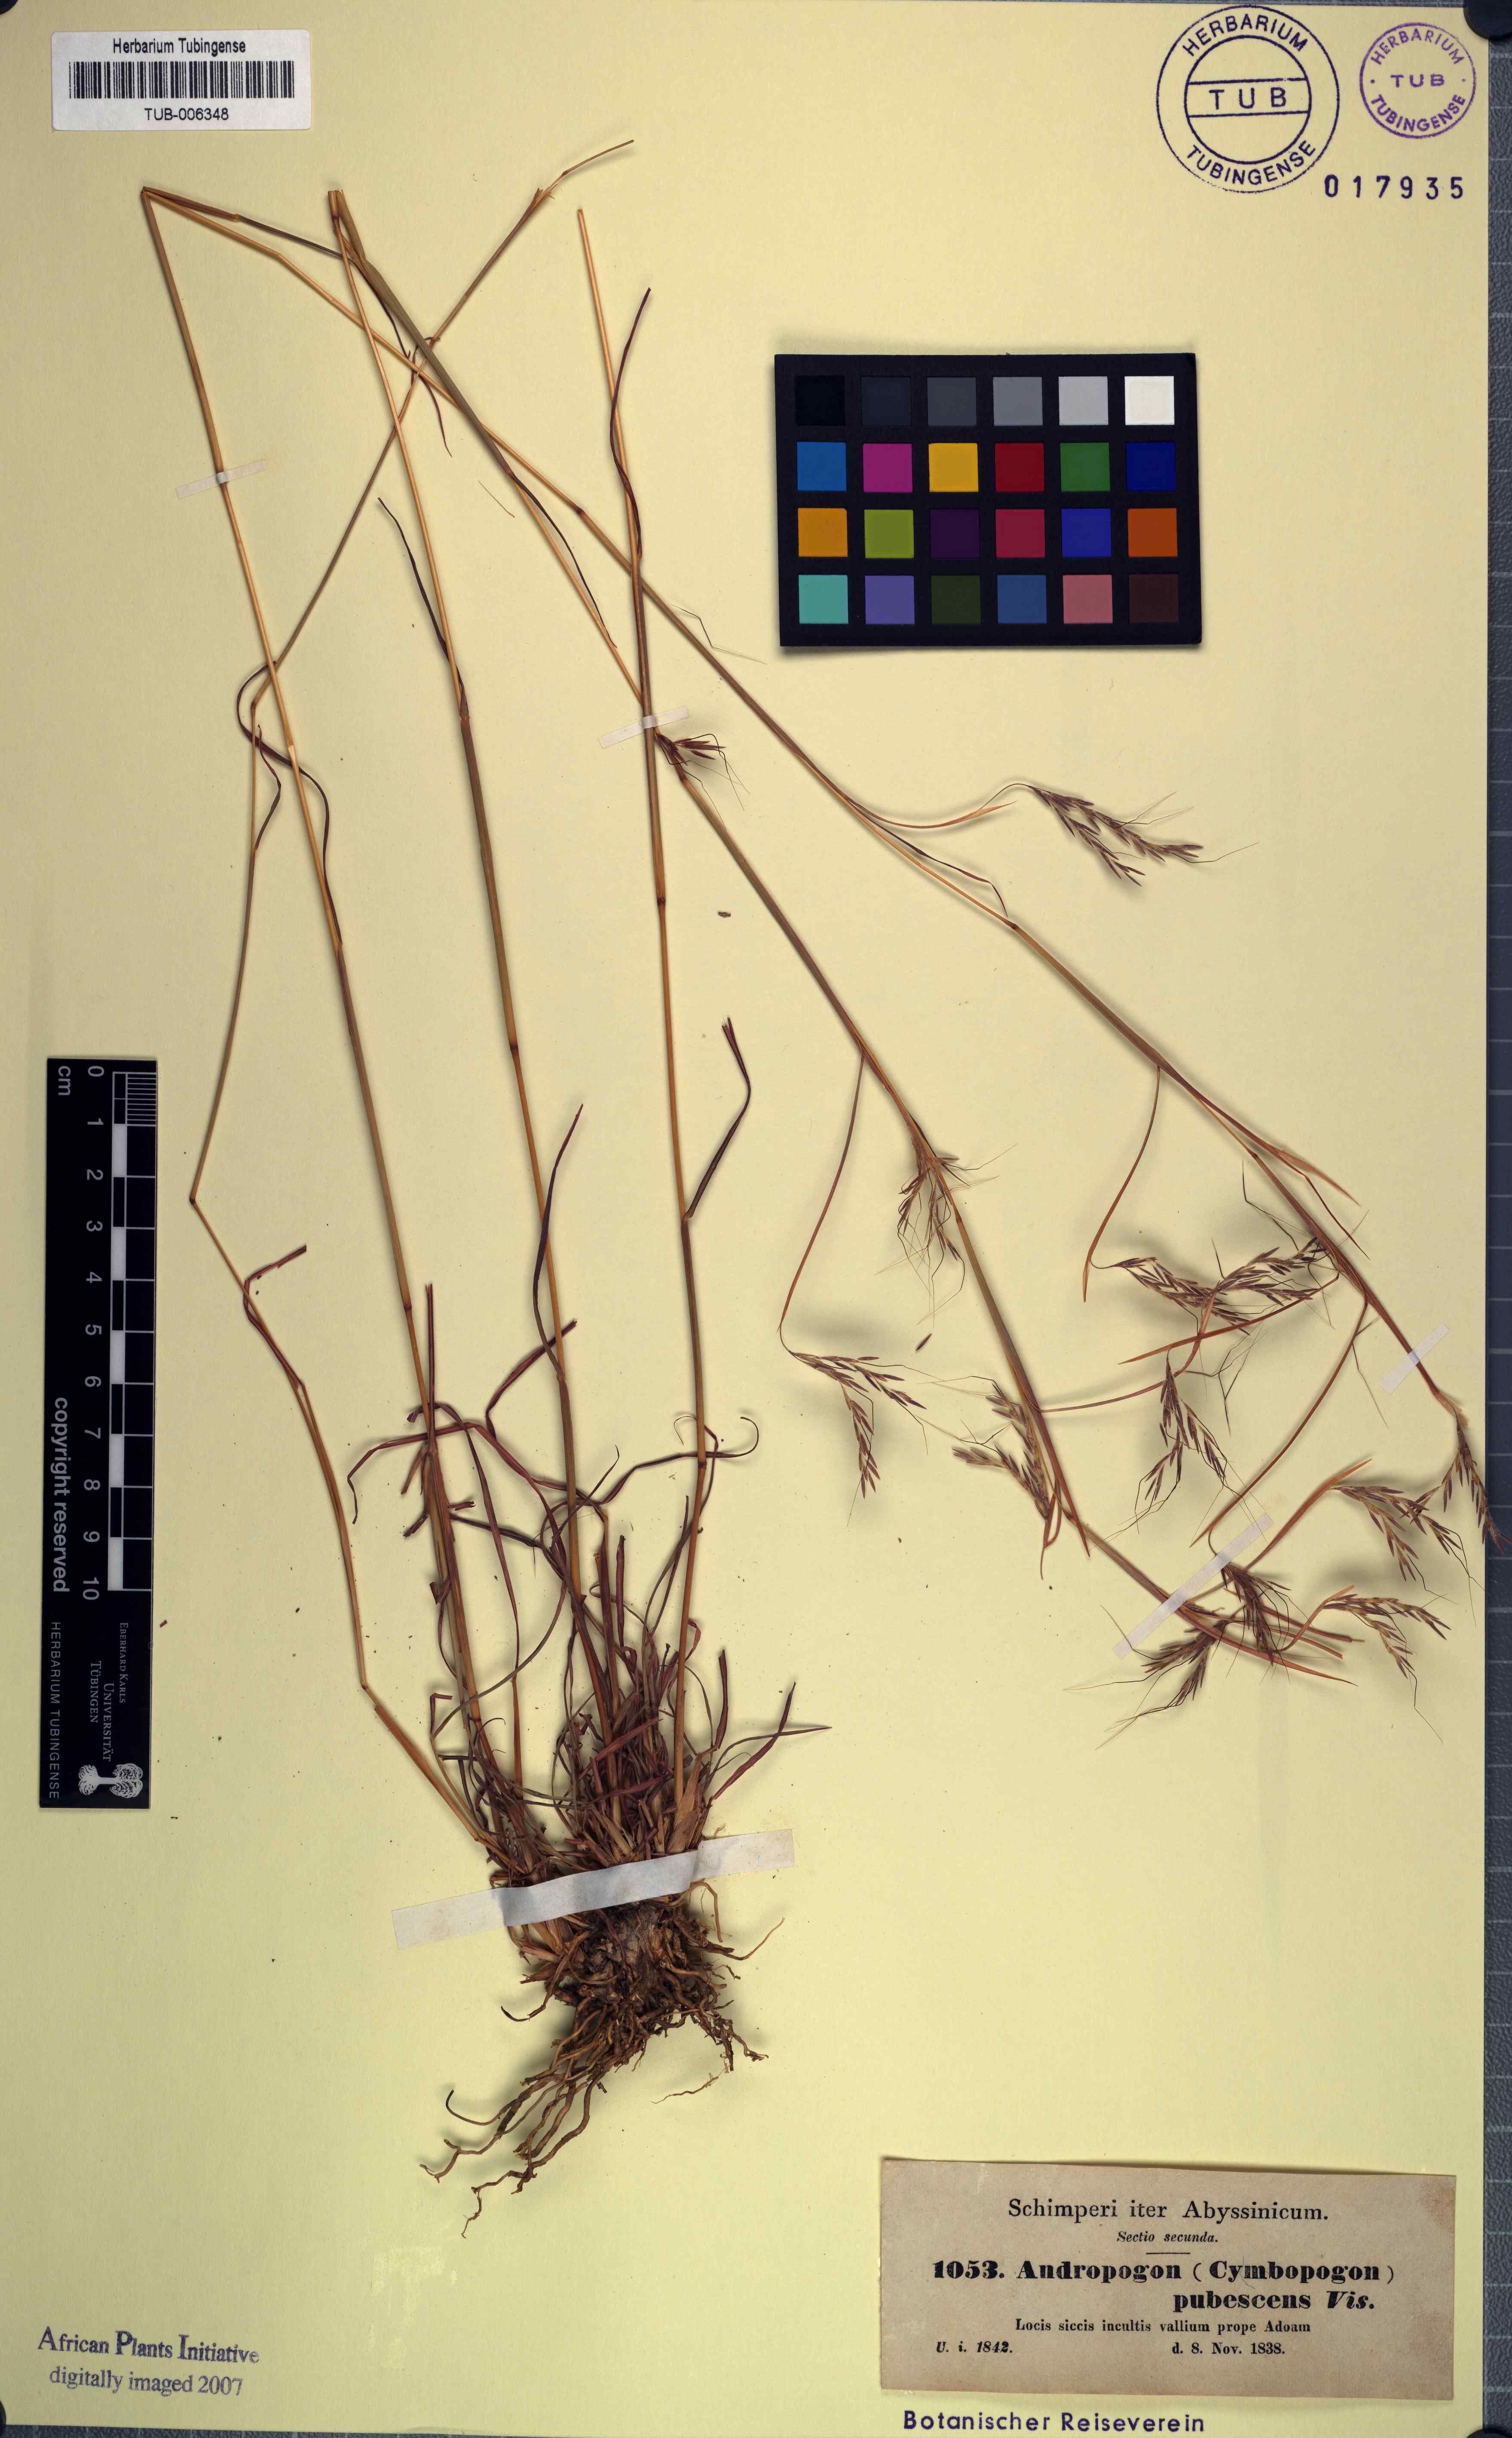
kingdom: Plantae
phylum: Tracheophyta
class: Liliopsida
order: Poales
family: Poaceae
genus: Hyparrhenia
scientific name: Hyparrhenia hirta
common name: Thatching grass
